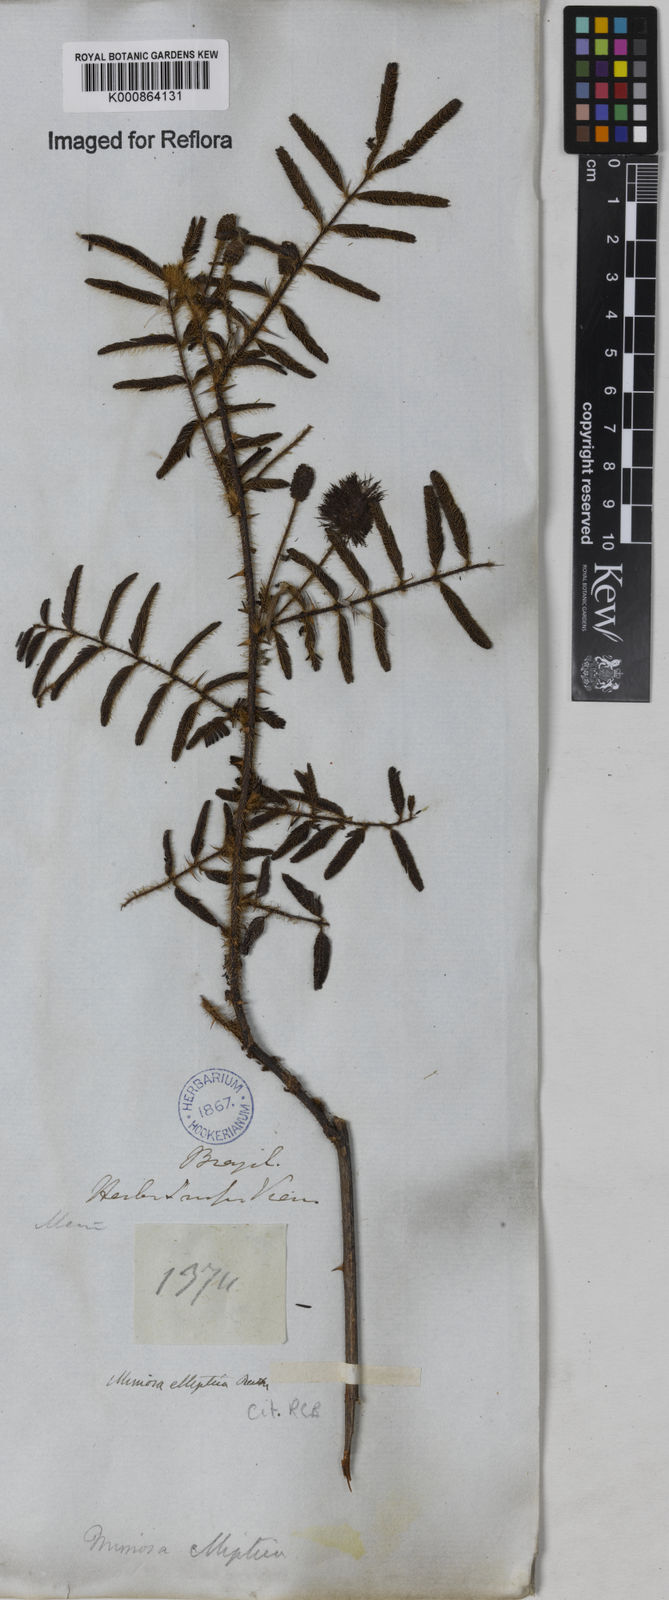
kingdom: Plantae
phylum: Tracheophyta
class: Magnoliopsida
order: Fabales
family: Fabaceae
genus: Mimosa
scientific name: Mimosa elliptica
